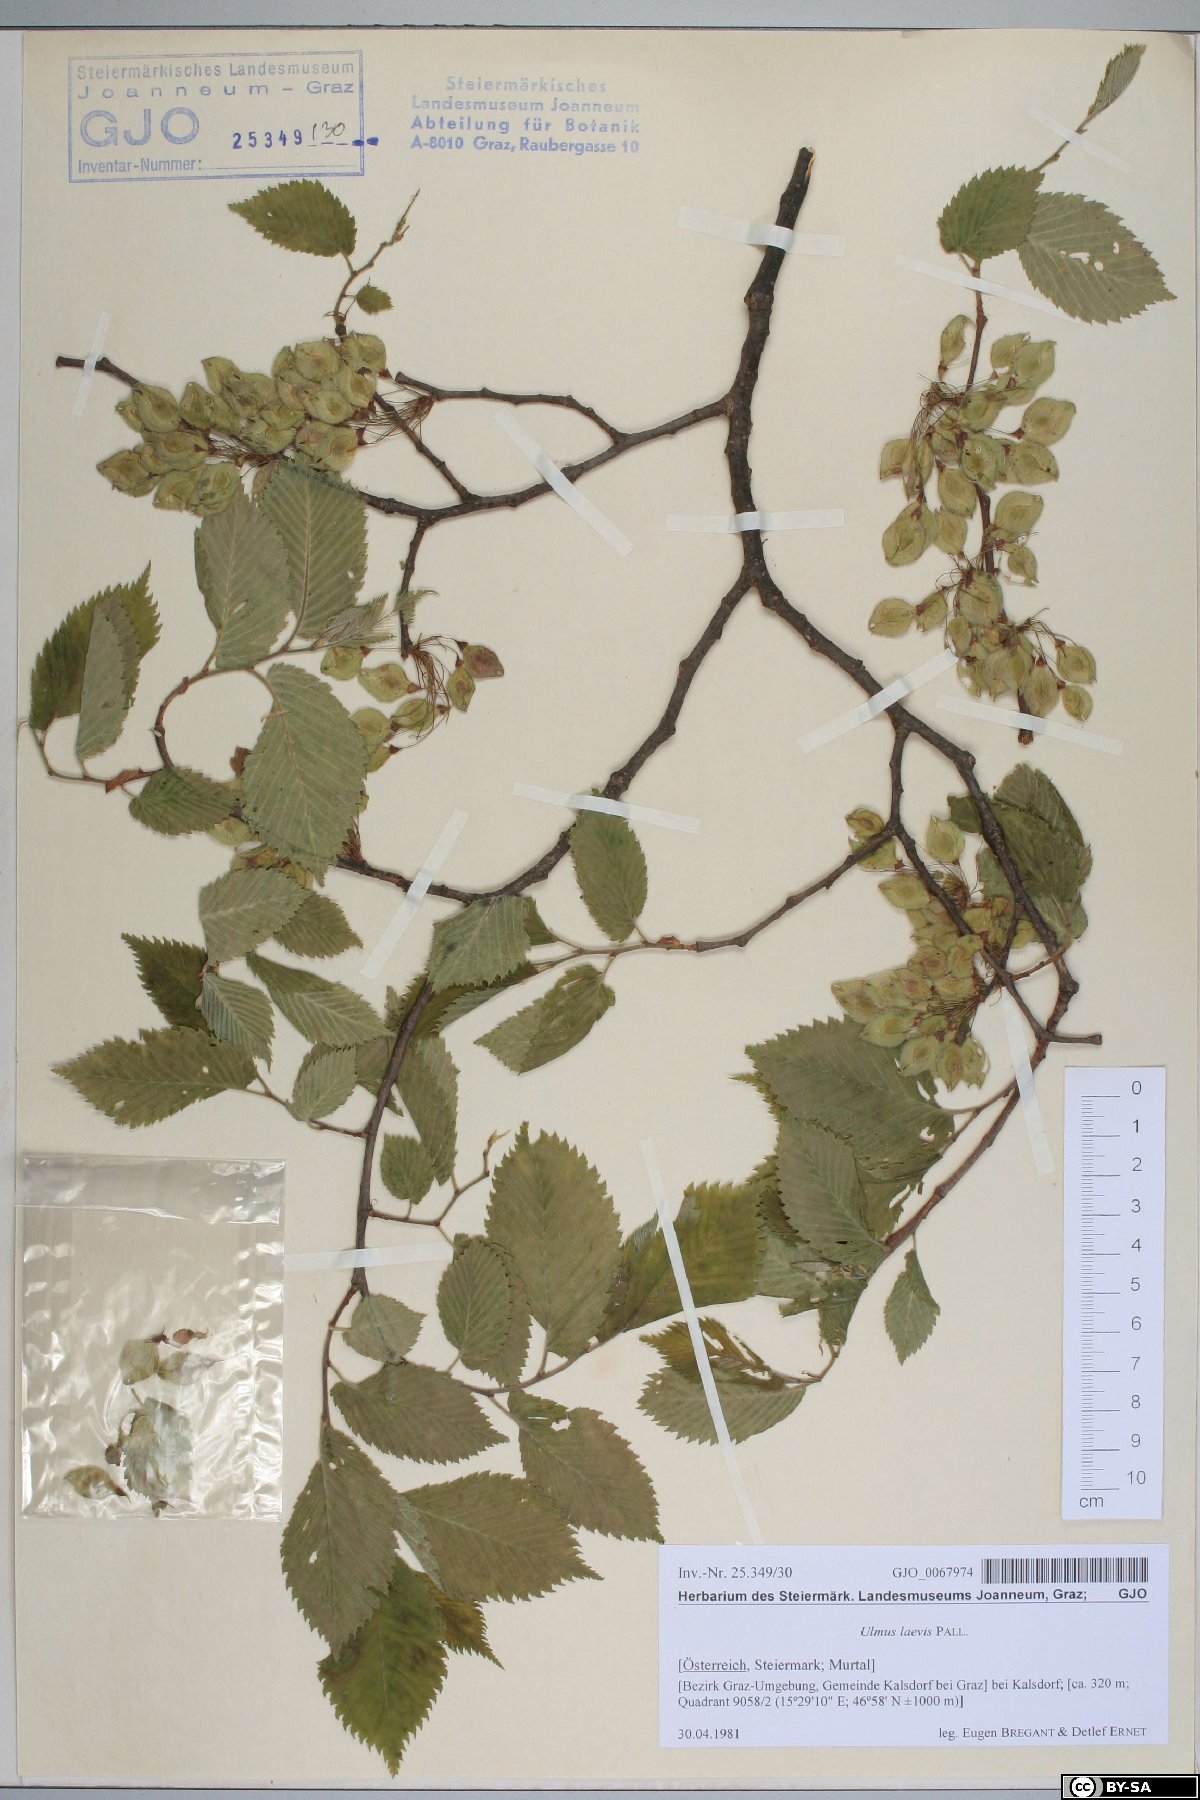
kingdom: Plantae
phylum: Tracheophyta
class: Magnoliopsida
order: Rosales
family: Ulmaceae
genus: Ulmus
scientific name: Ulmus laevis
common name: European white-elm
